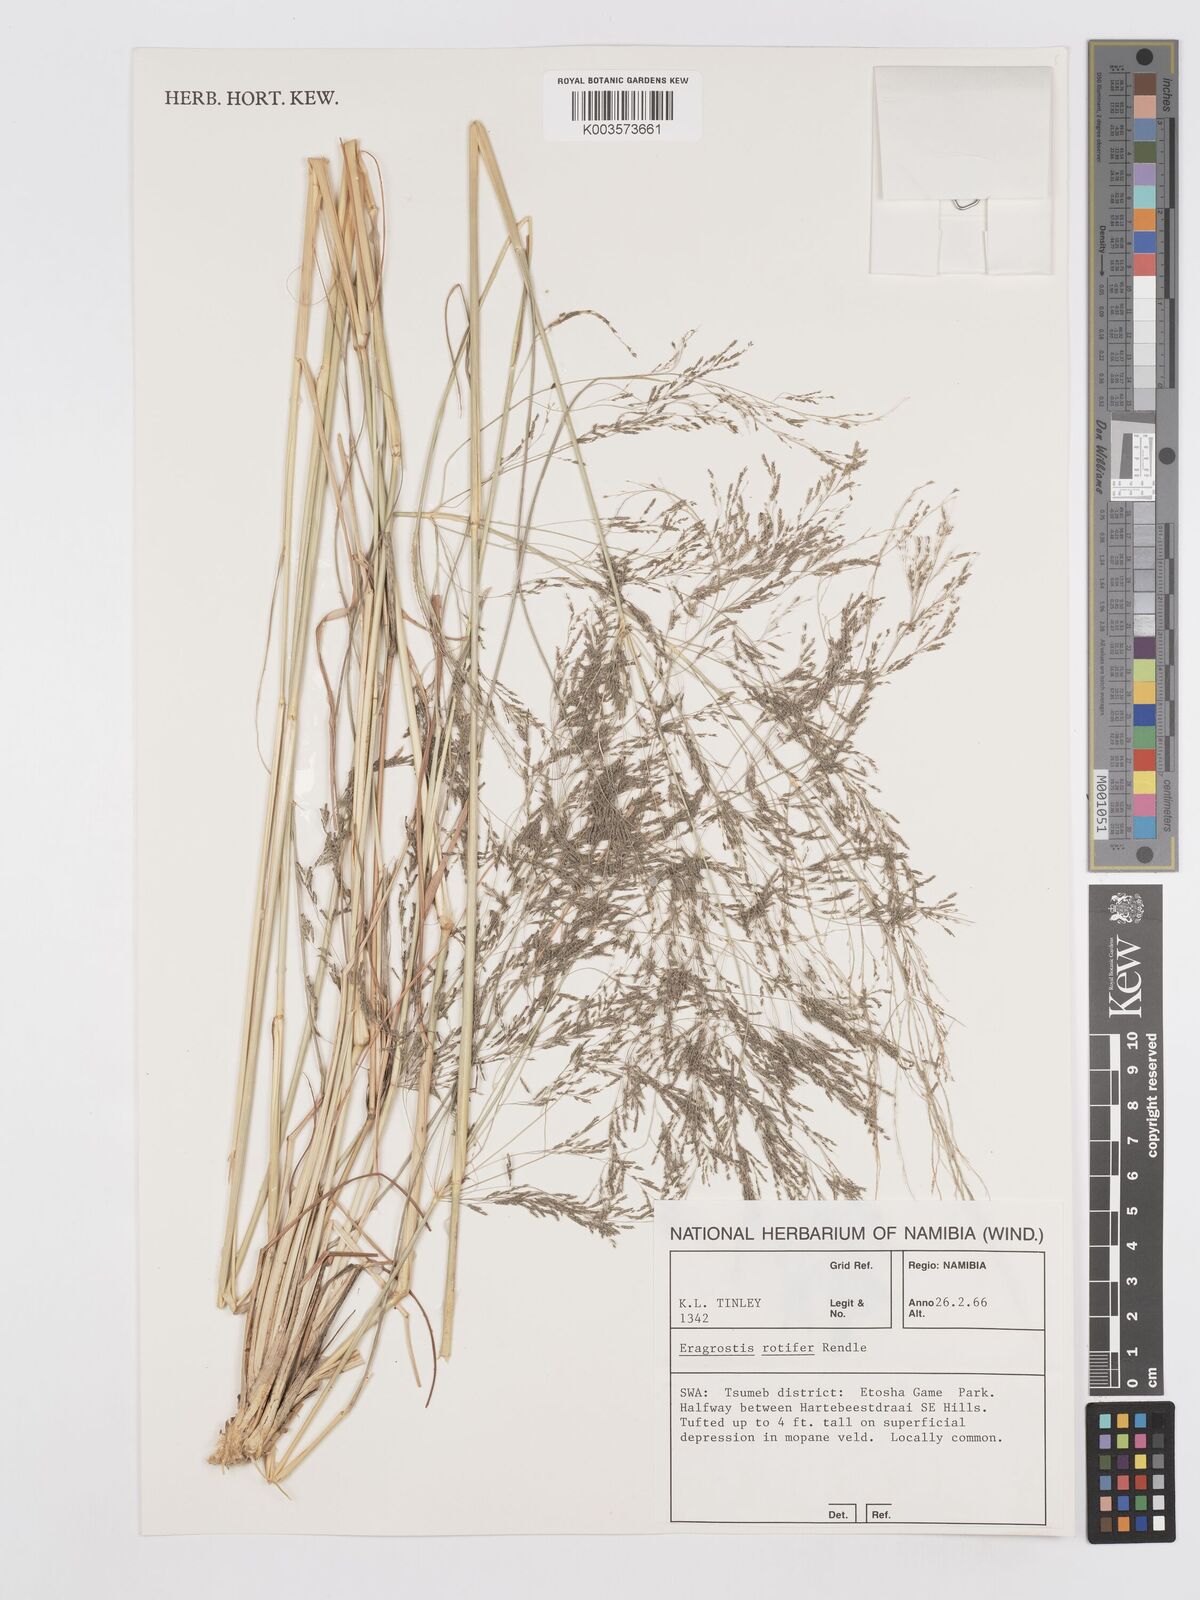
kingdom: Plantae
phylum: Tracheophyta
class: Liliopsida
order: Poales
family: Poaceae
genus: Eragrostis
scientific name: Eragrostis rotifer
